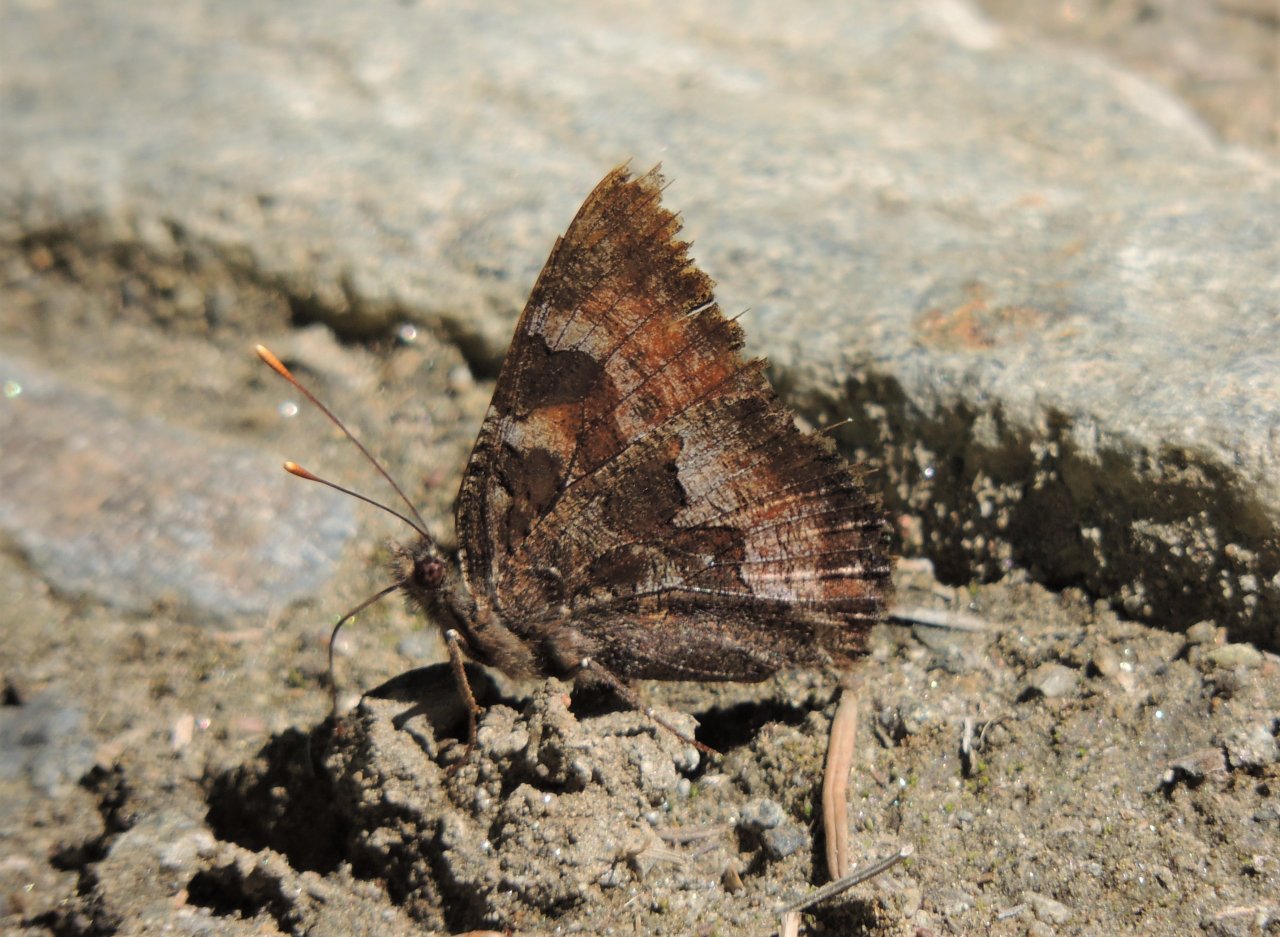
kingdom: Animalia
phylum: Arthropoda
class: Insecta
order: Lepidoptera
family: Nymphalidae
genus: Nymphalis
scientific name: Nymphalis californica
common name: California Tortoiseshell
